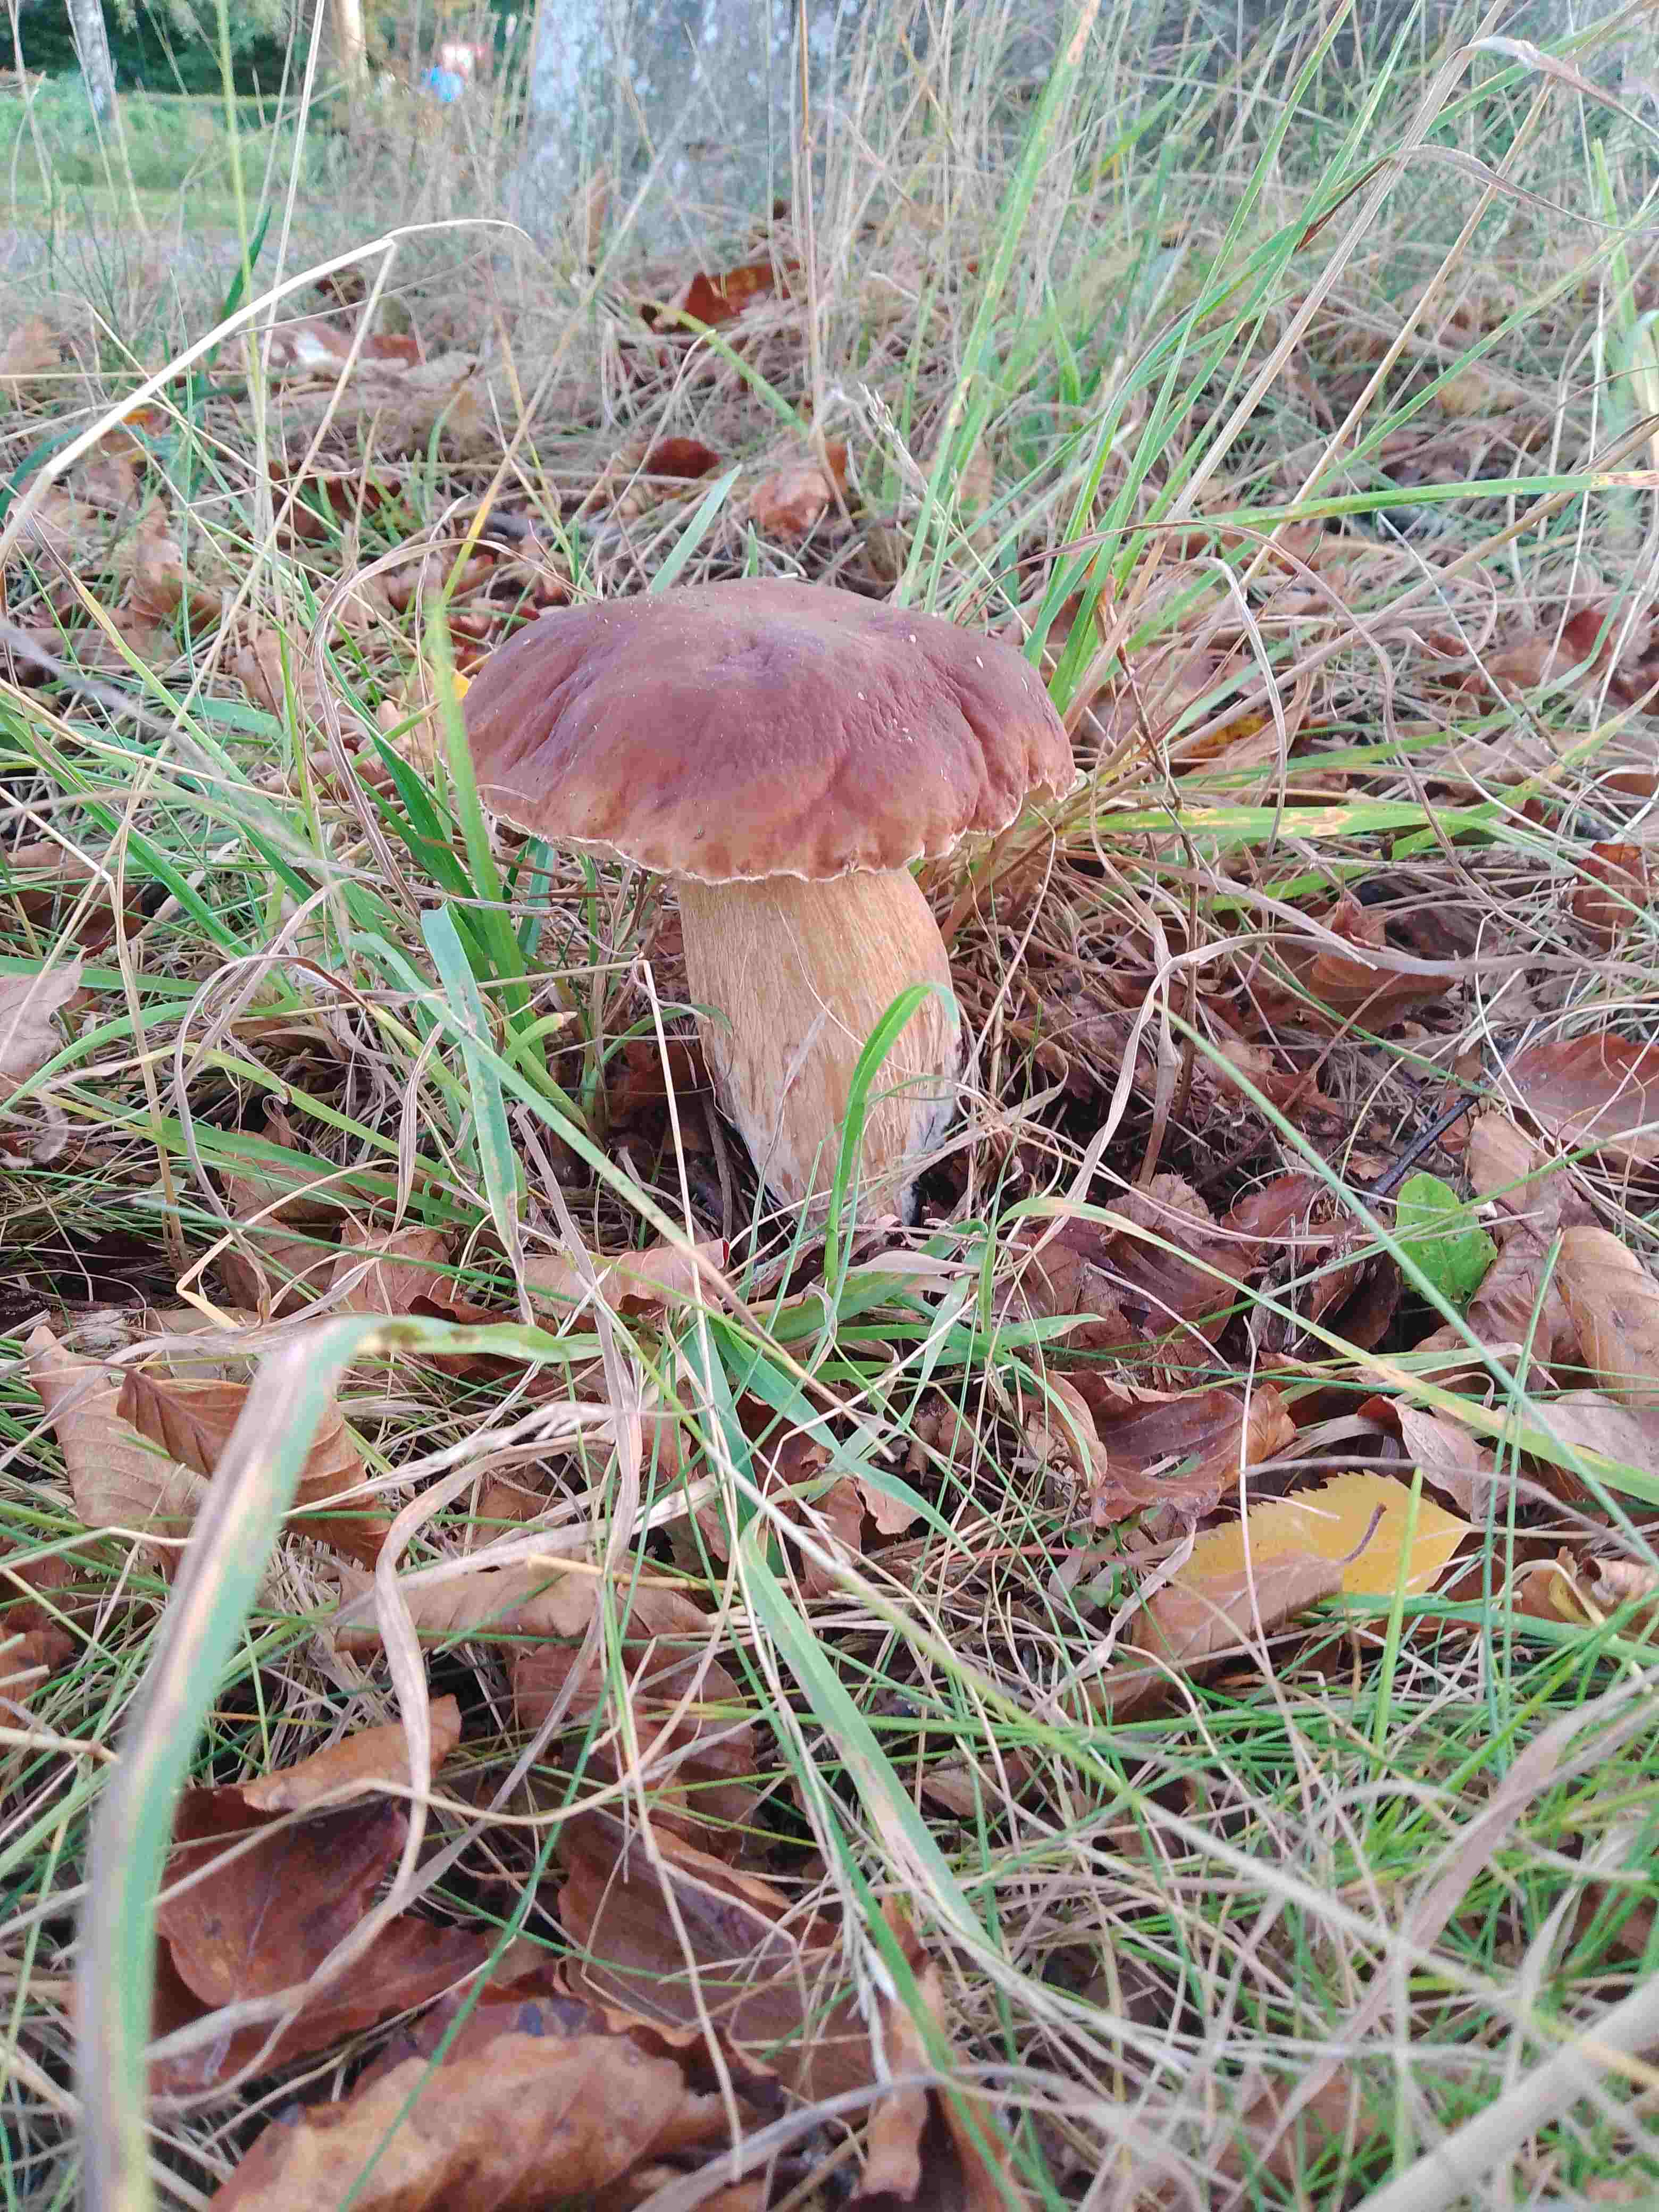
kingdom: Fungi
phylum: Basidiomycota
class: Agaricomycetes
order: Boletales
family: Boletaceae
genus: Boletus
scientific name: Boletus edulis
